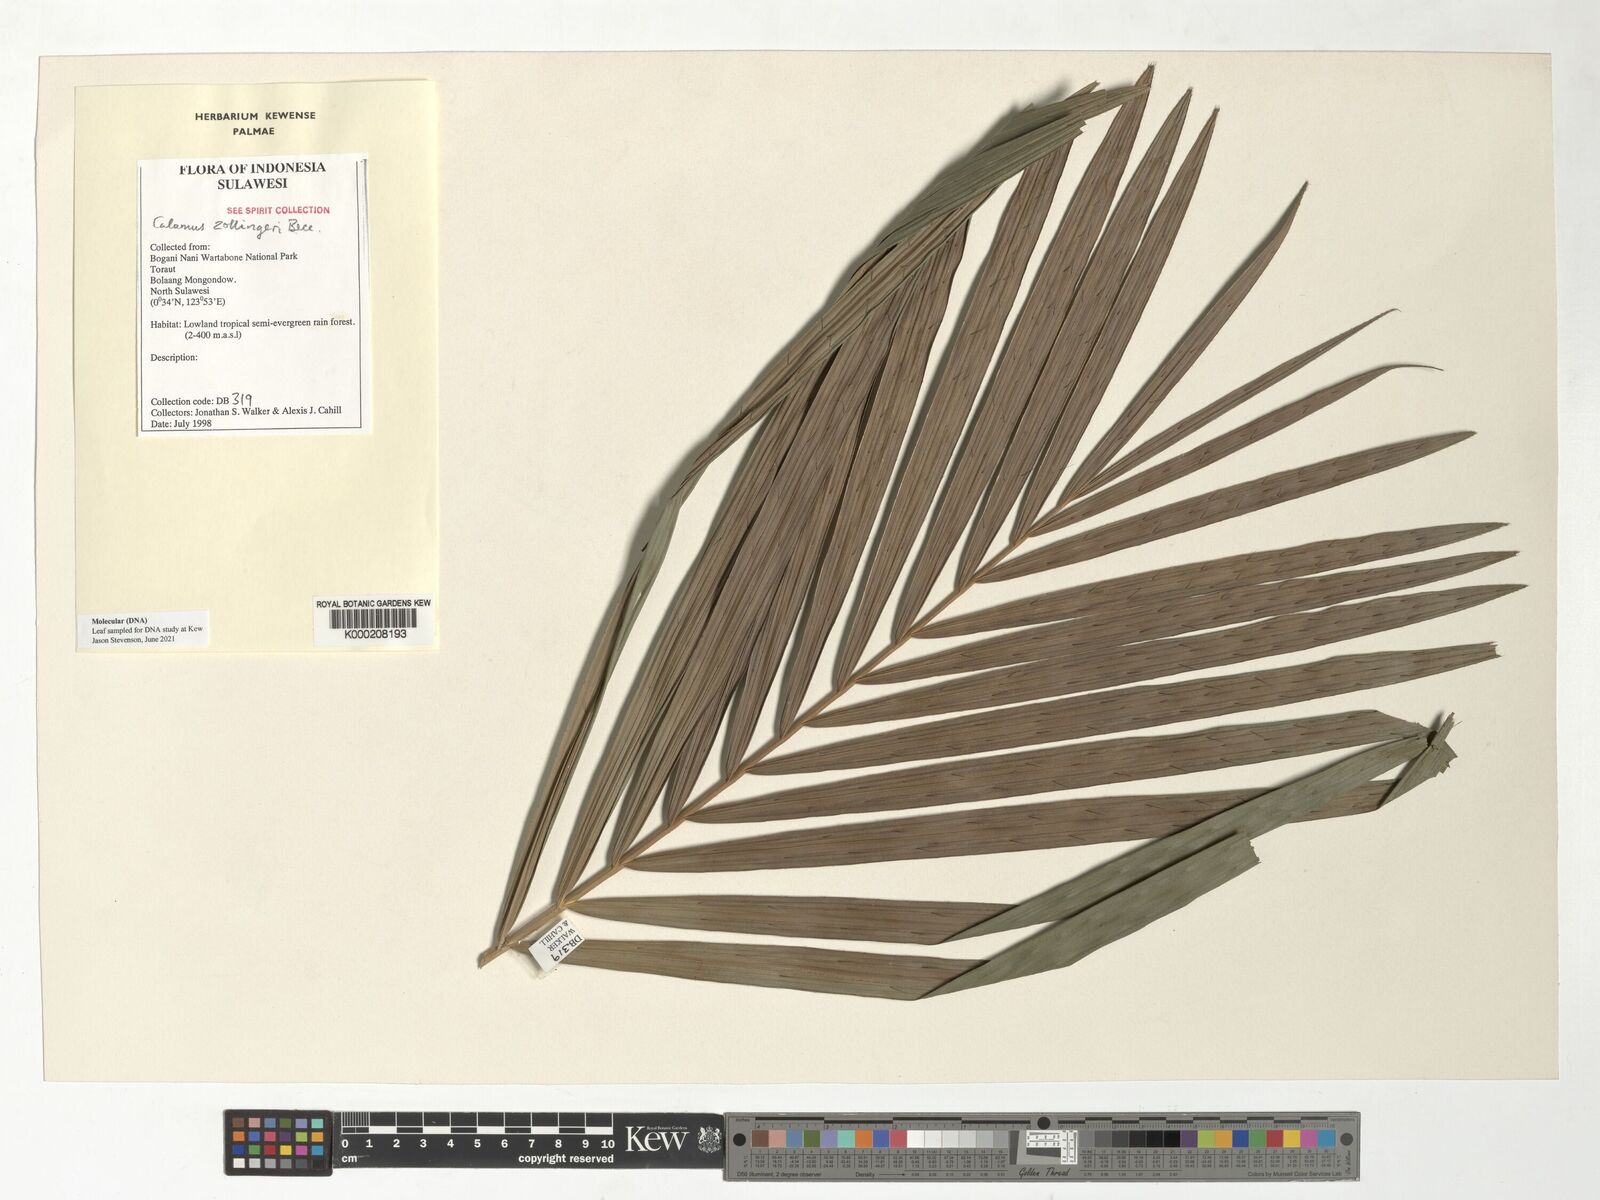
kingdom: Plantae
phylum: Tracheophyta
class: Liliopsida
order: Arecales
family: Arecaceae
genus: Calamus
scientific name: Calamus
